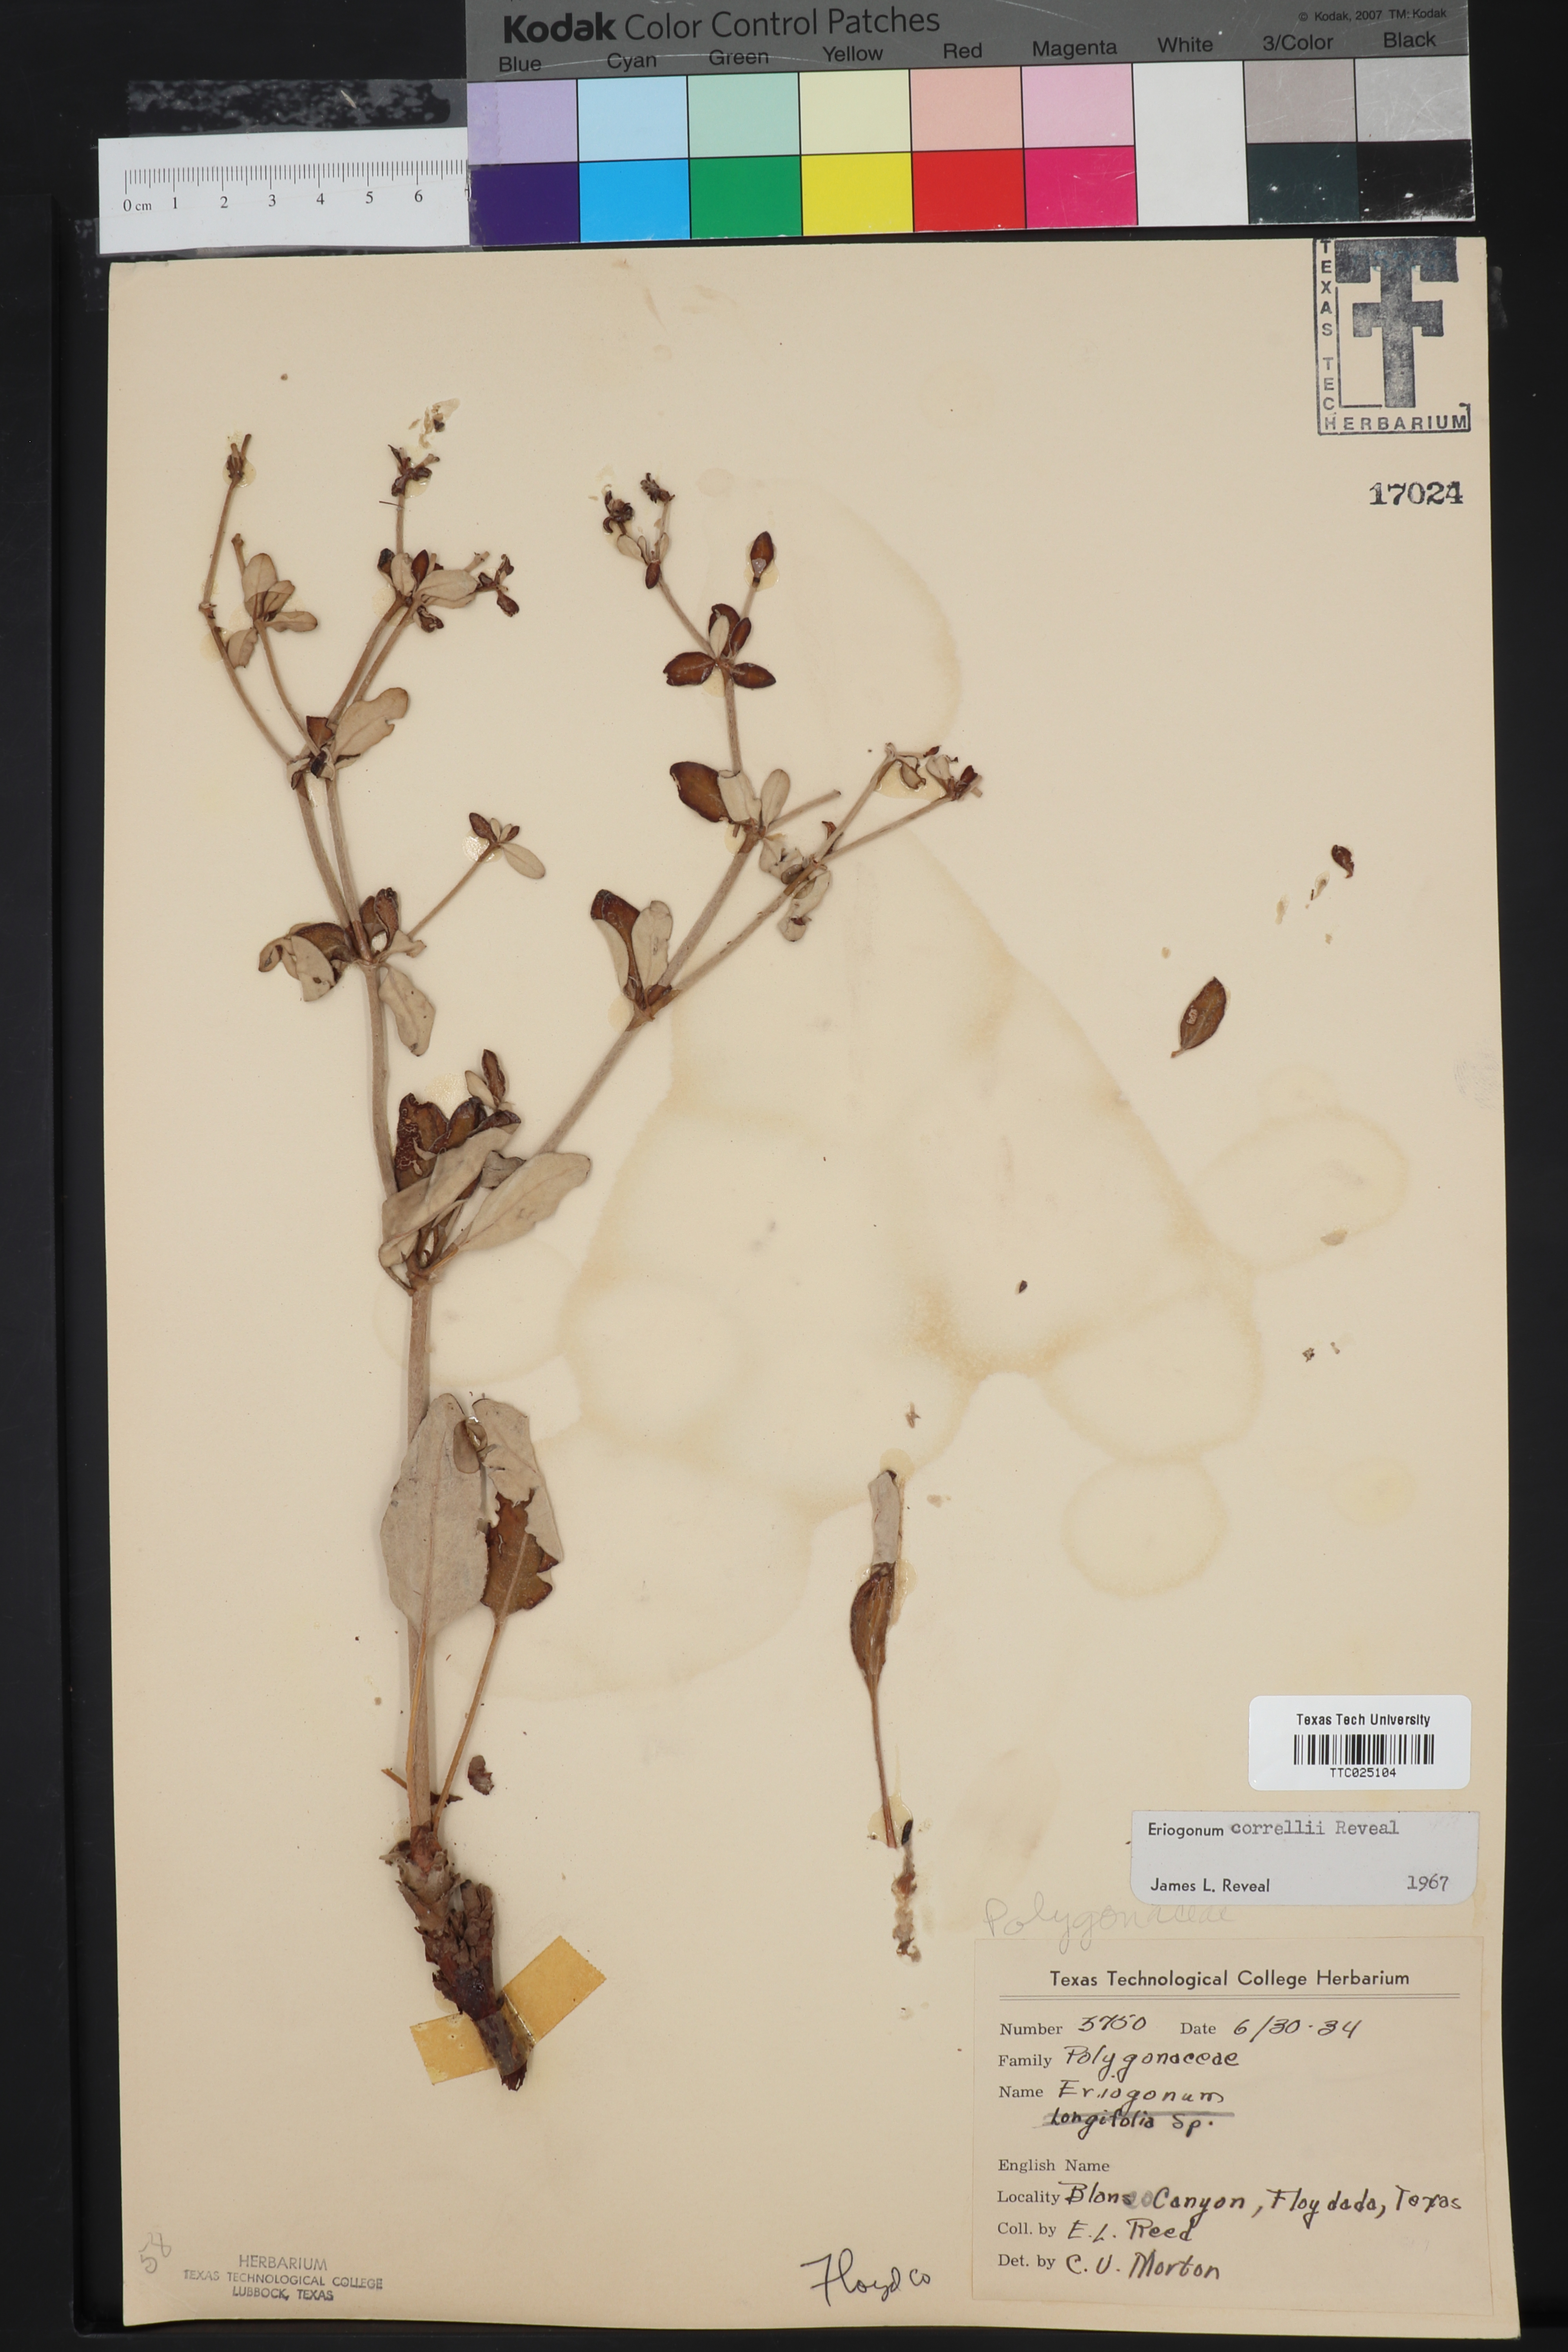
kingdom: Plantae
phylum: Tracheophyta
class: Magnoliopsida
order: Caryophyllales
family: Polygonaceae
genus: Eriogonum
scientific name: Eriogonum correllii
